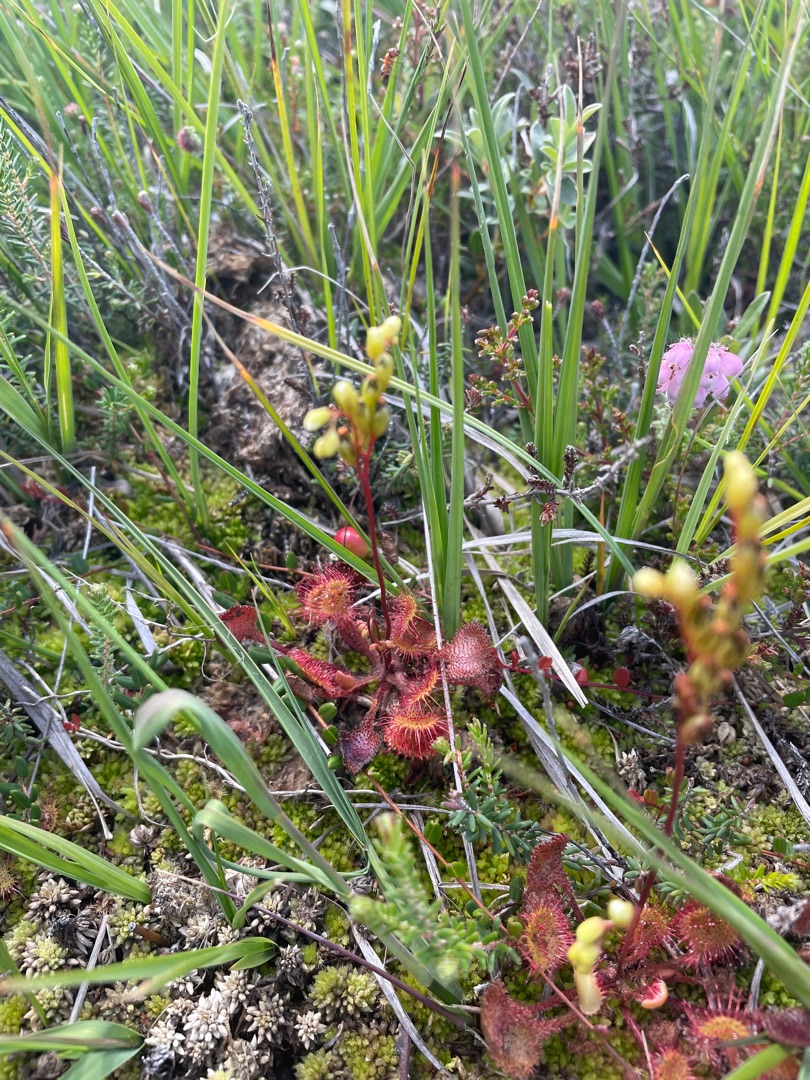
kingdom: Plantae
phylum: Tracheophyta
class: Magnoliopsida
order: Caryophyllales
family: Droseraceae
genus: Drosera
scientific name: Drosera rotundifolia
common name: Rundbladet soldug
